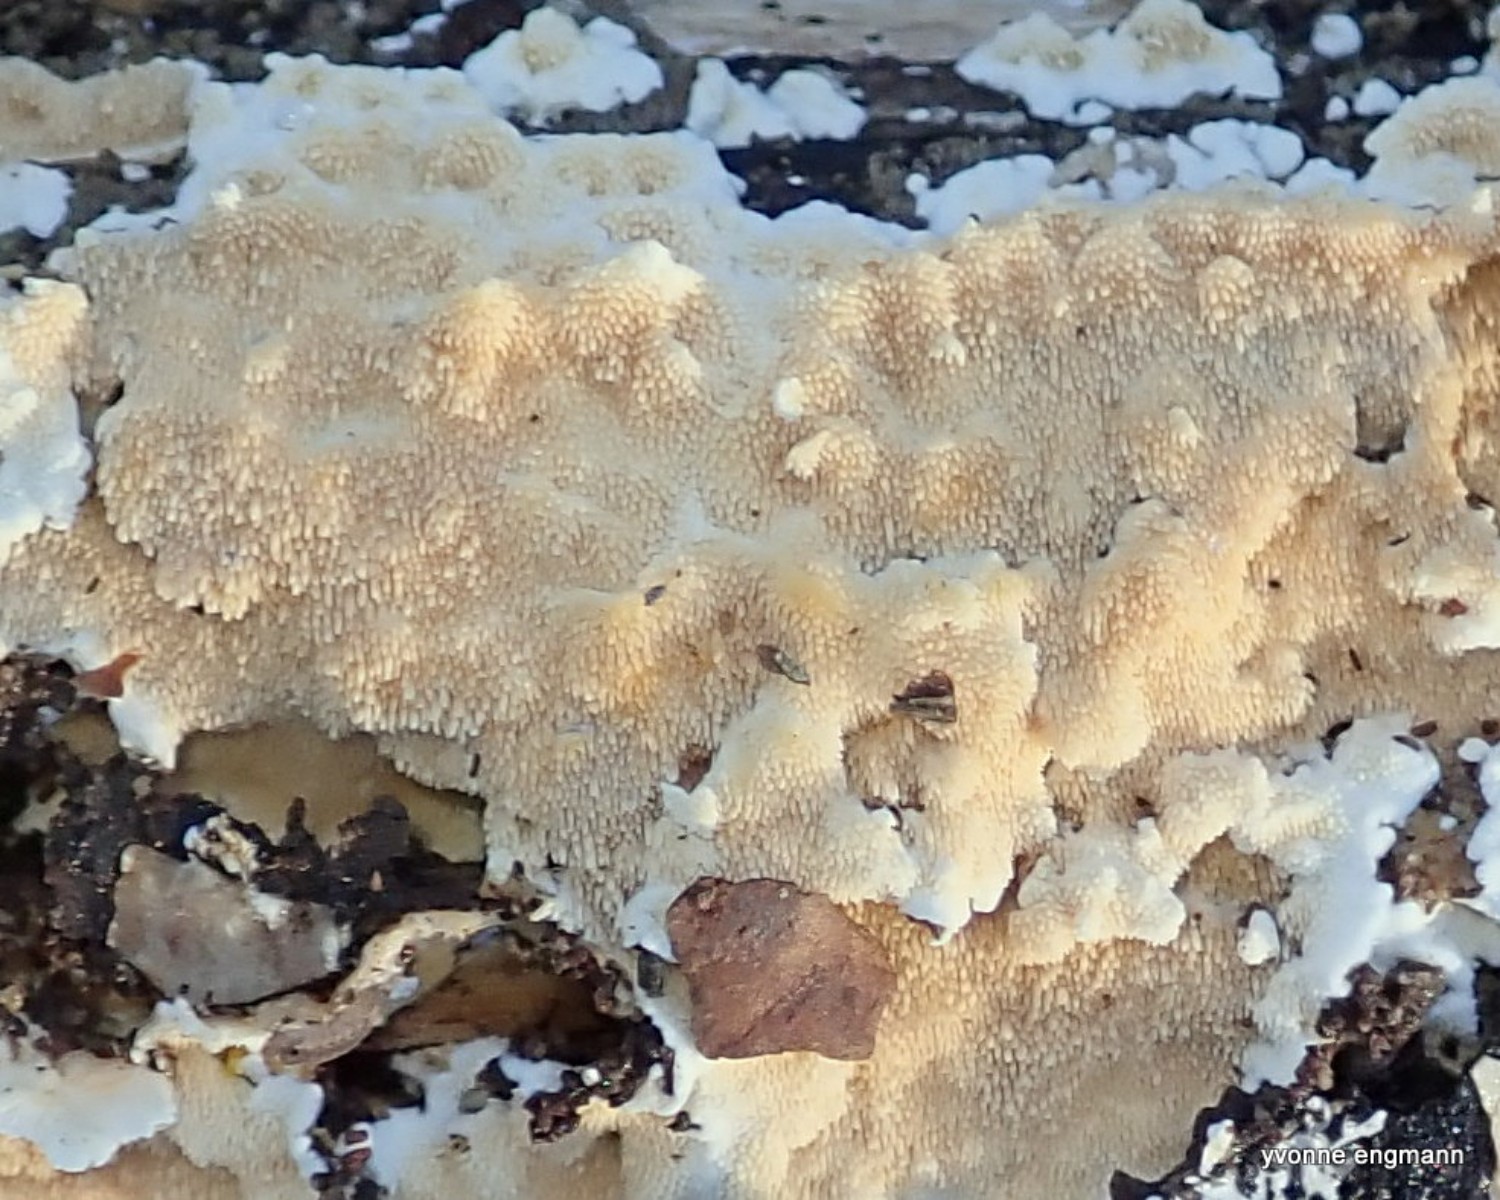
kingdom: Fungi
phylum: Basidiomycota
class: Agaricomycetes
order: Polyporales
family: Steccherinaceae
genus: Steccherinum
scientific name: Steccherinum ochraceum
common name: almindelig skønpig
